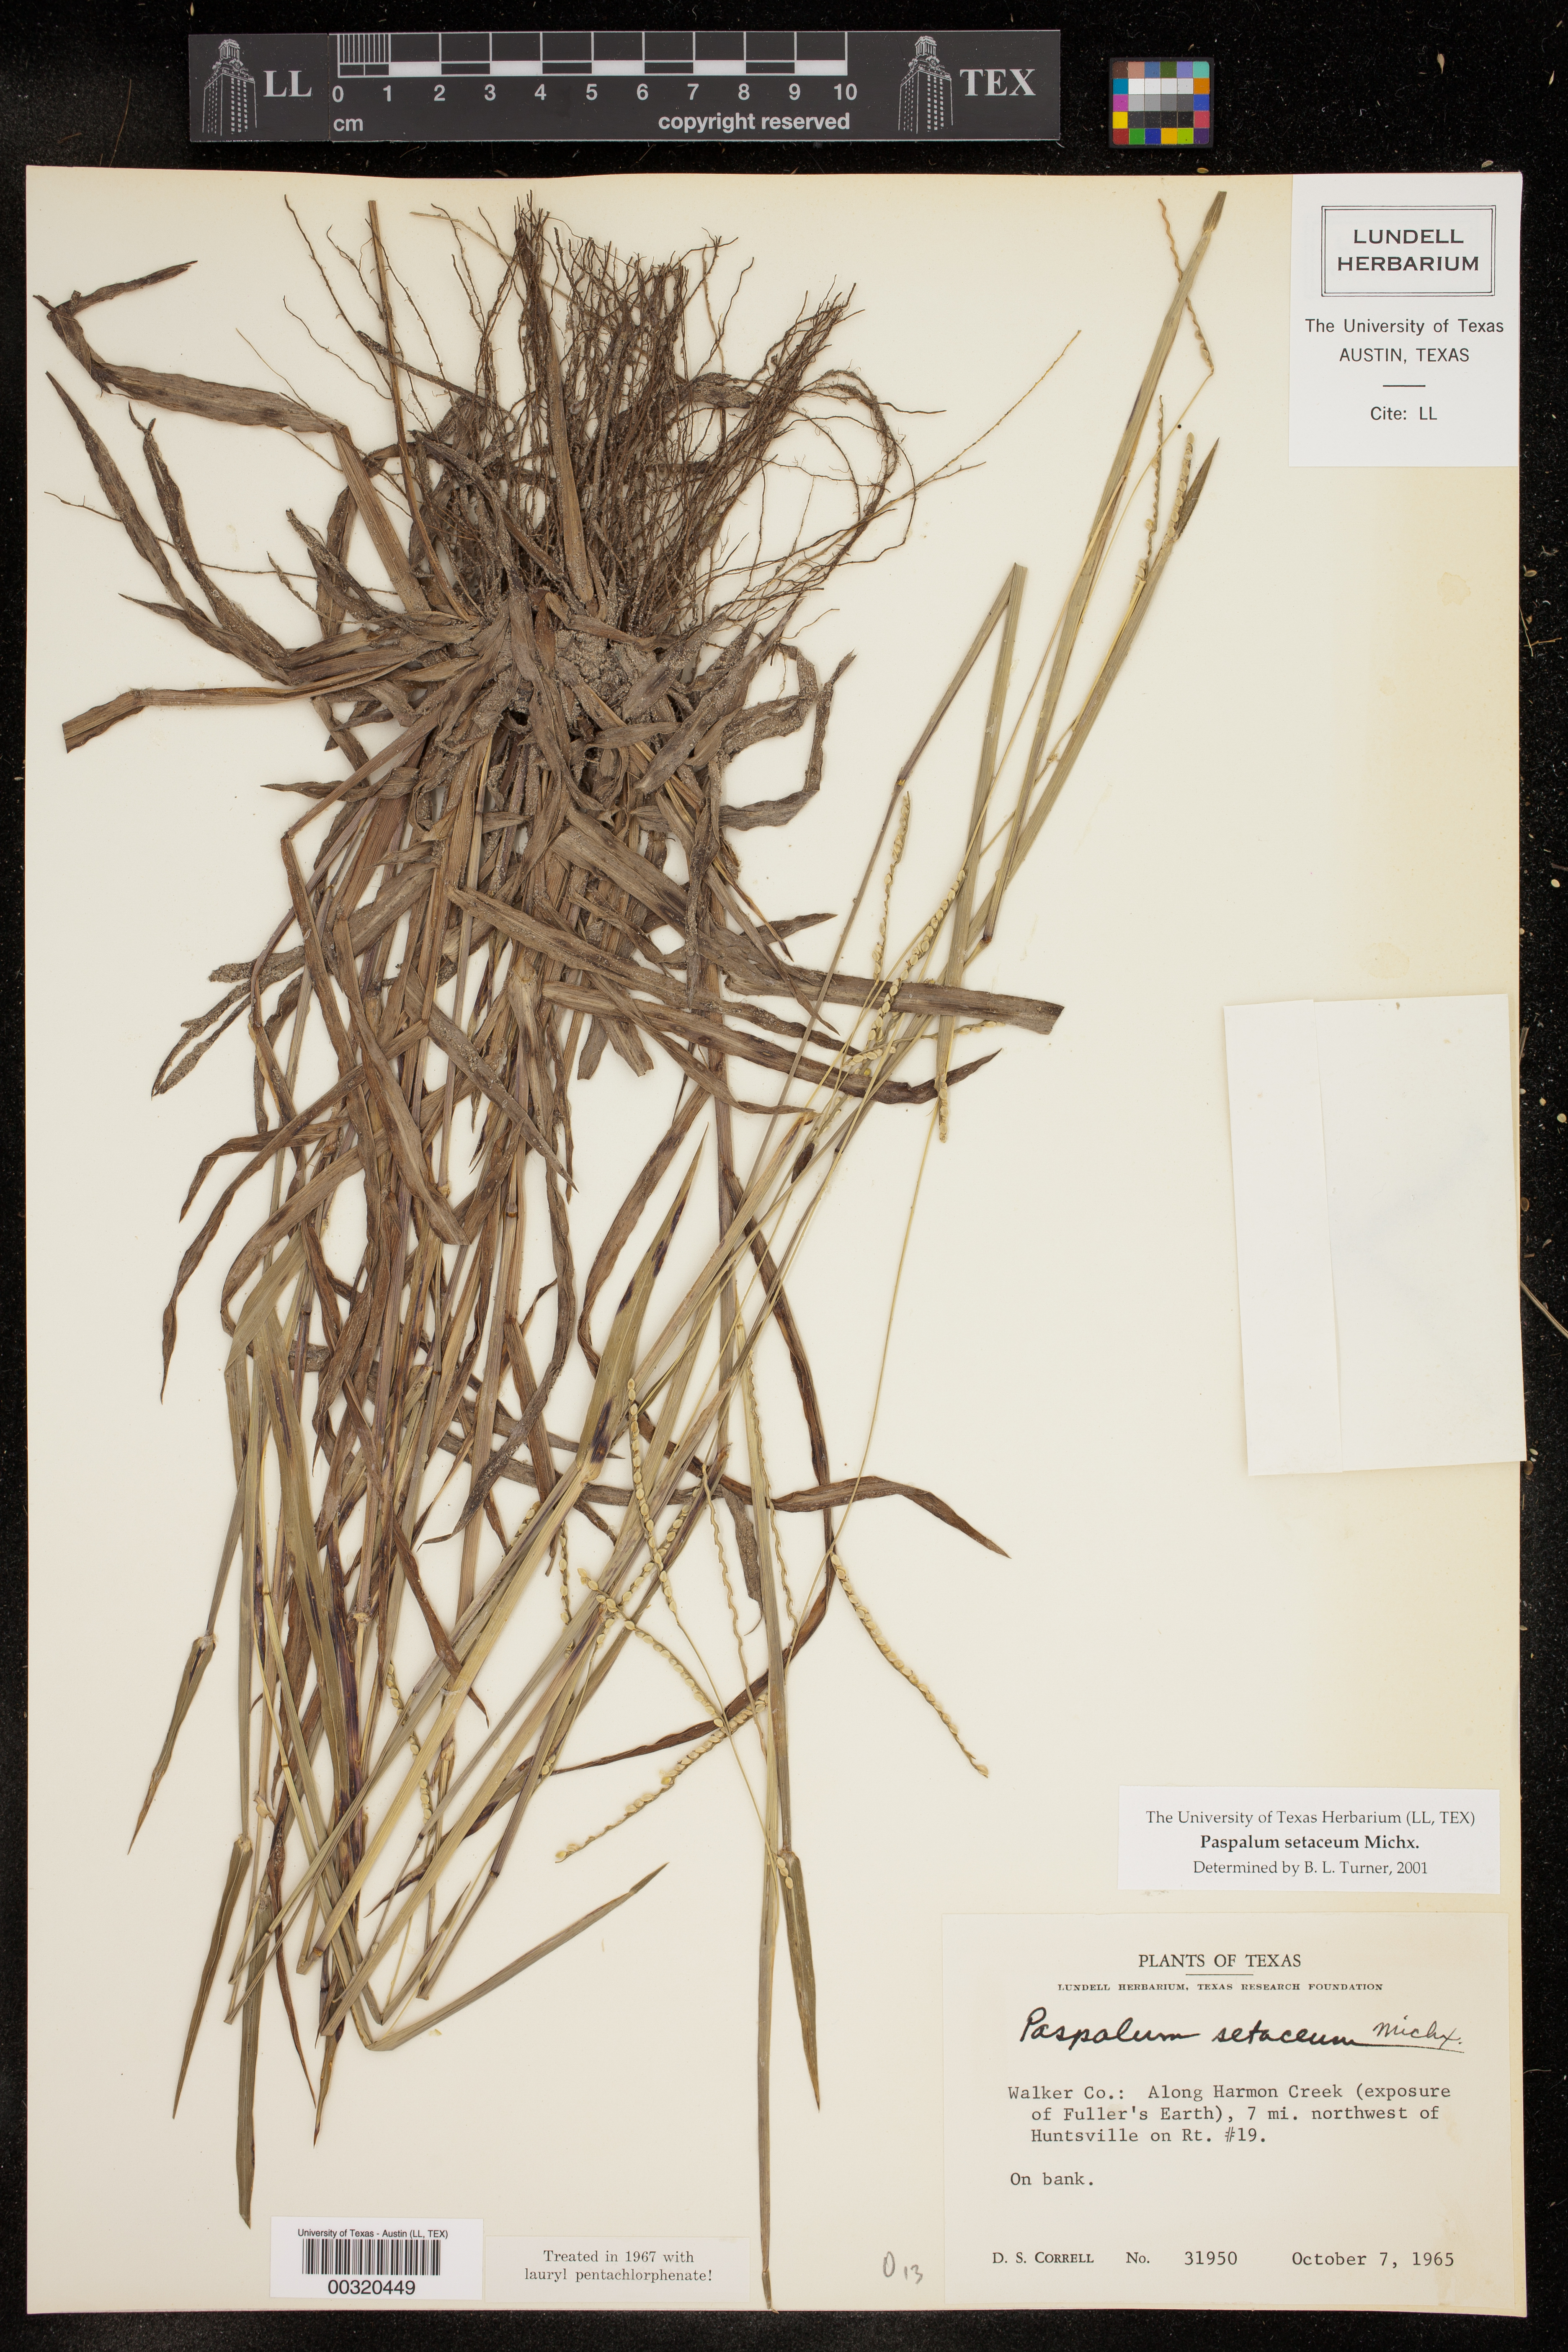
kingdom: Plantae
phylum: Tracheophyta
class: Liliopsida
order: Poales
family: Poaceae
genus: Paspalum
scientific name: Paspalum setaceum
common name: Slender paspalum
